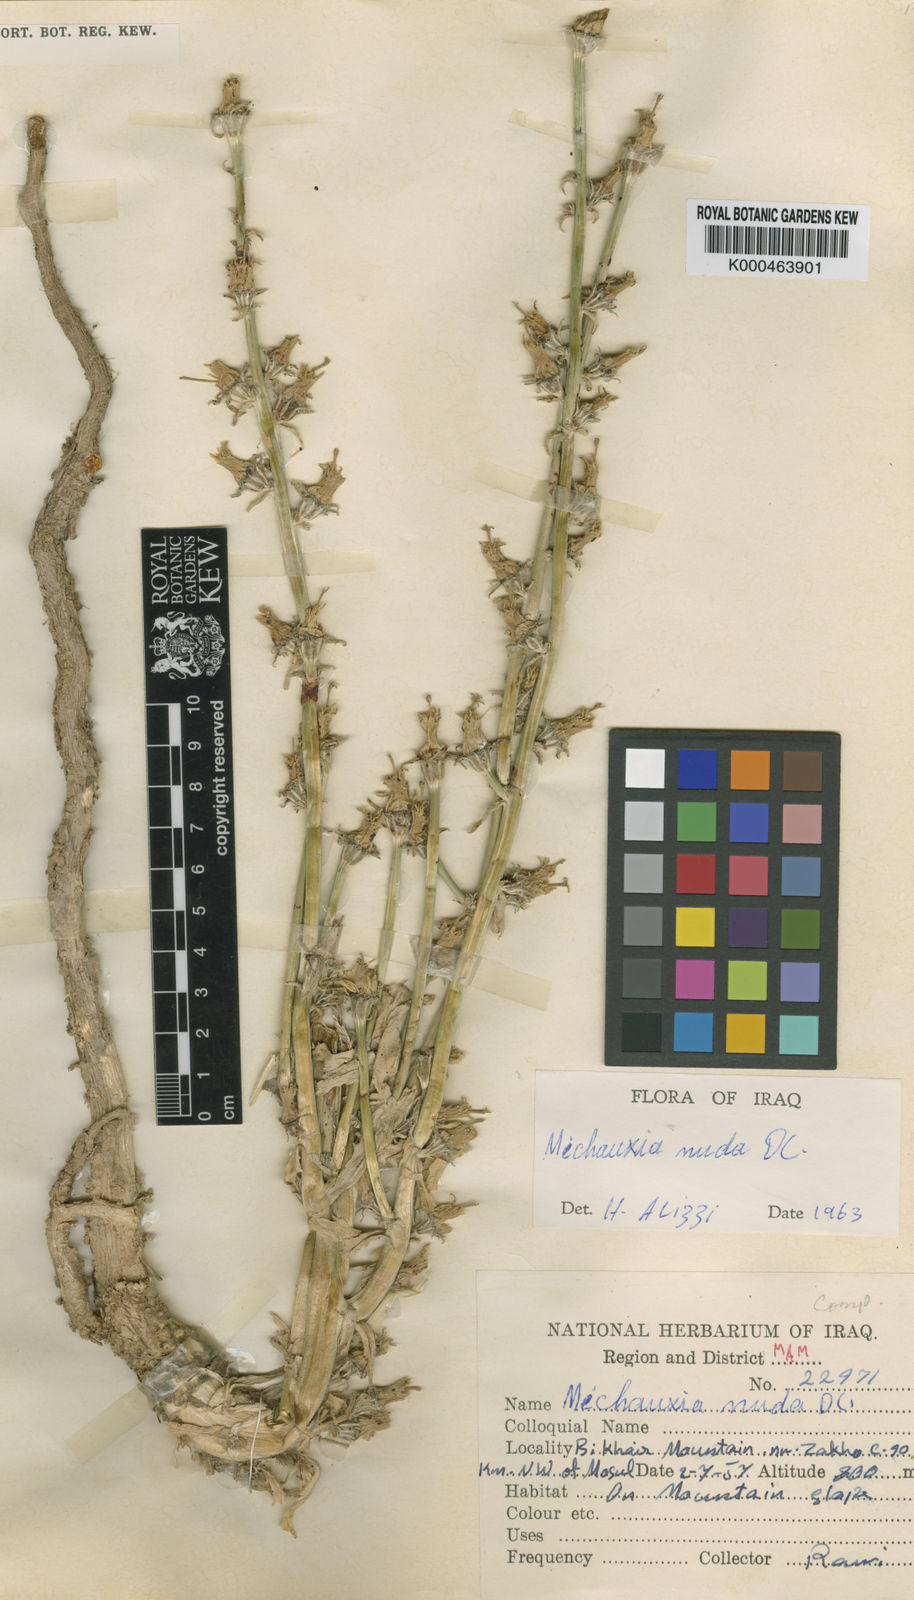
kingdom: Plantae
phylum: Tracheophyta
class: Magnoliopsida
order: Asterales
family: Campanulaceae
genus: Michauxia
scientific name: Michauxia nuda
